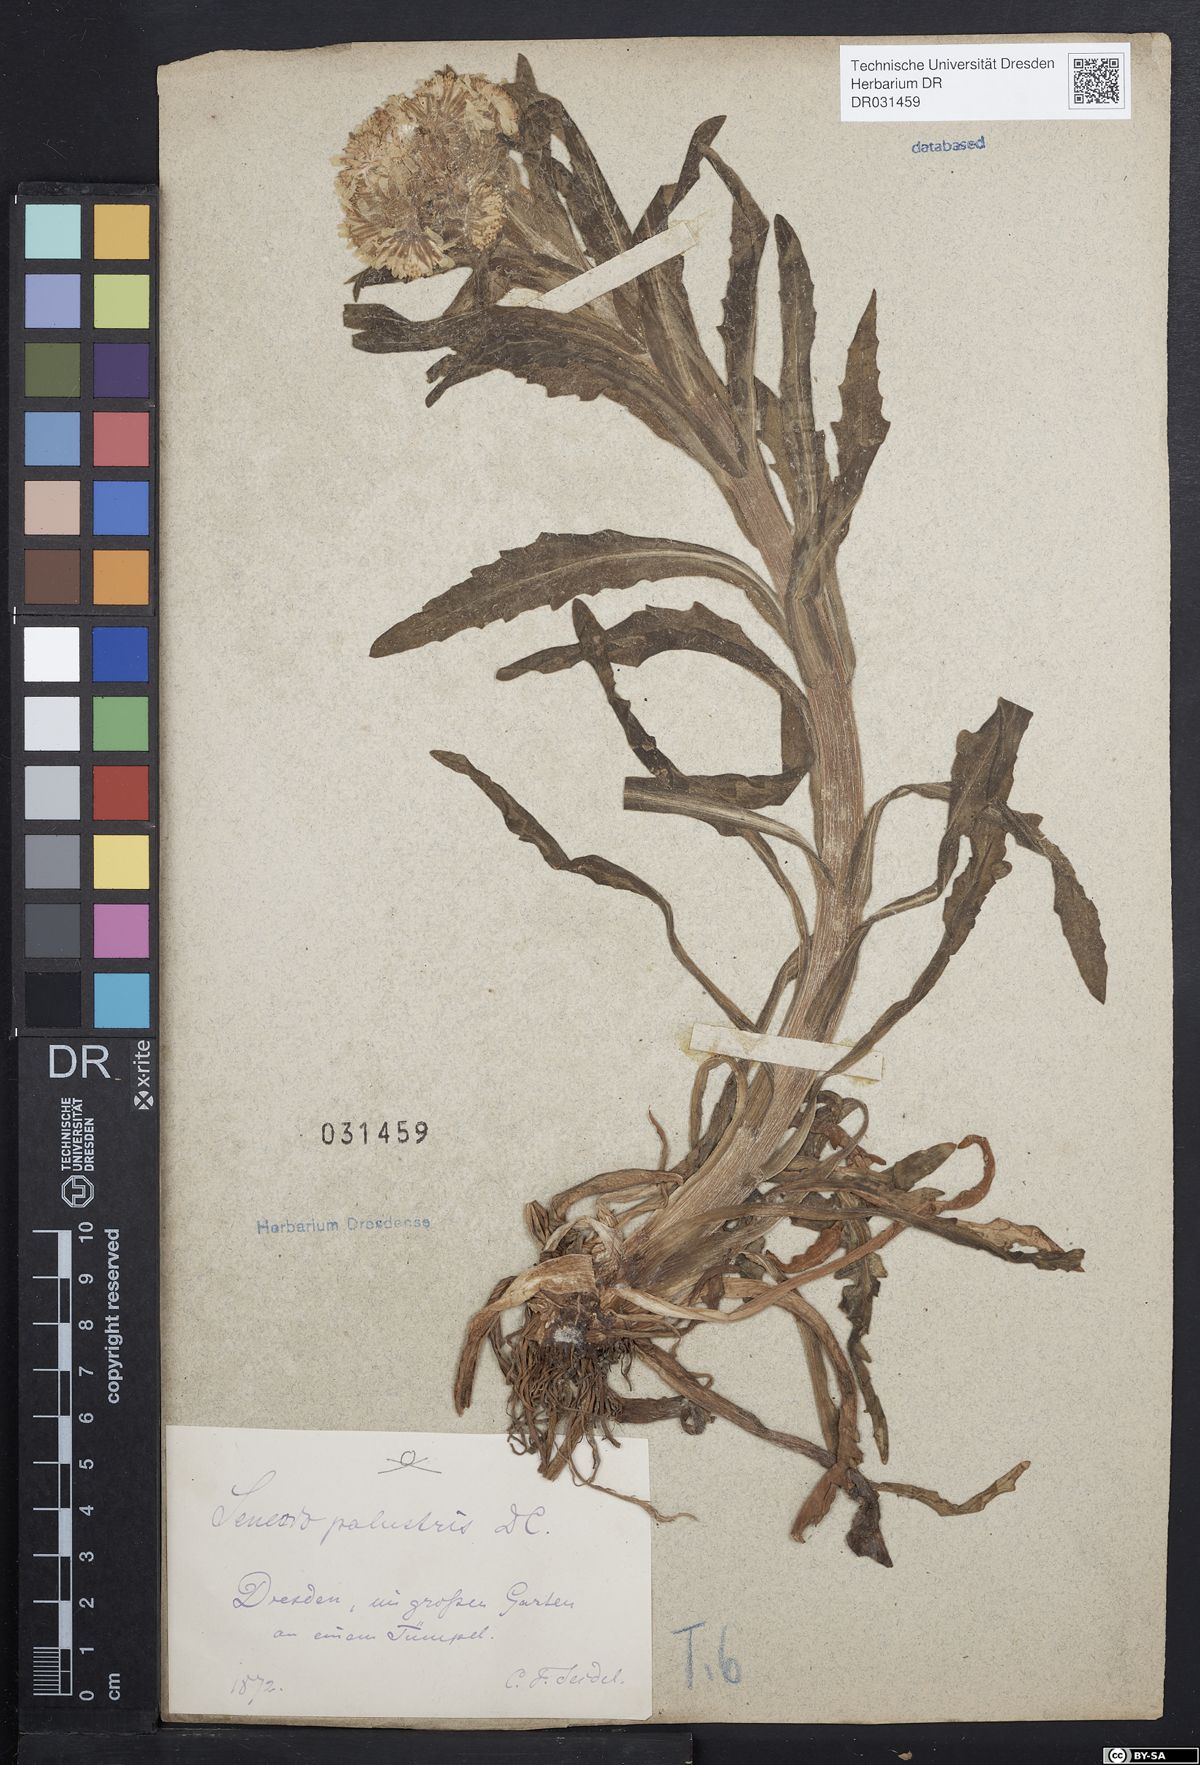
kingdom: Plantae
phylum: Tracheophyta
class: Magnoliopsida
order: Asterales
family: Asteraceae
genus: Tephroseris
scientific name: Tephroseris palustris
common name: Marsh fleawort
